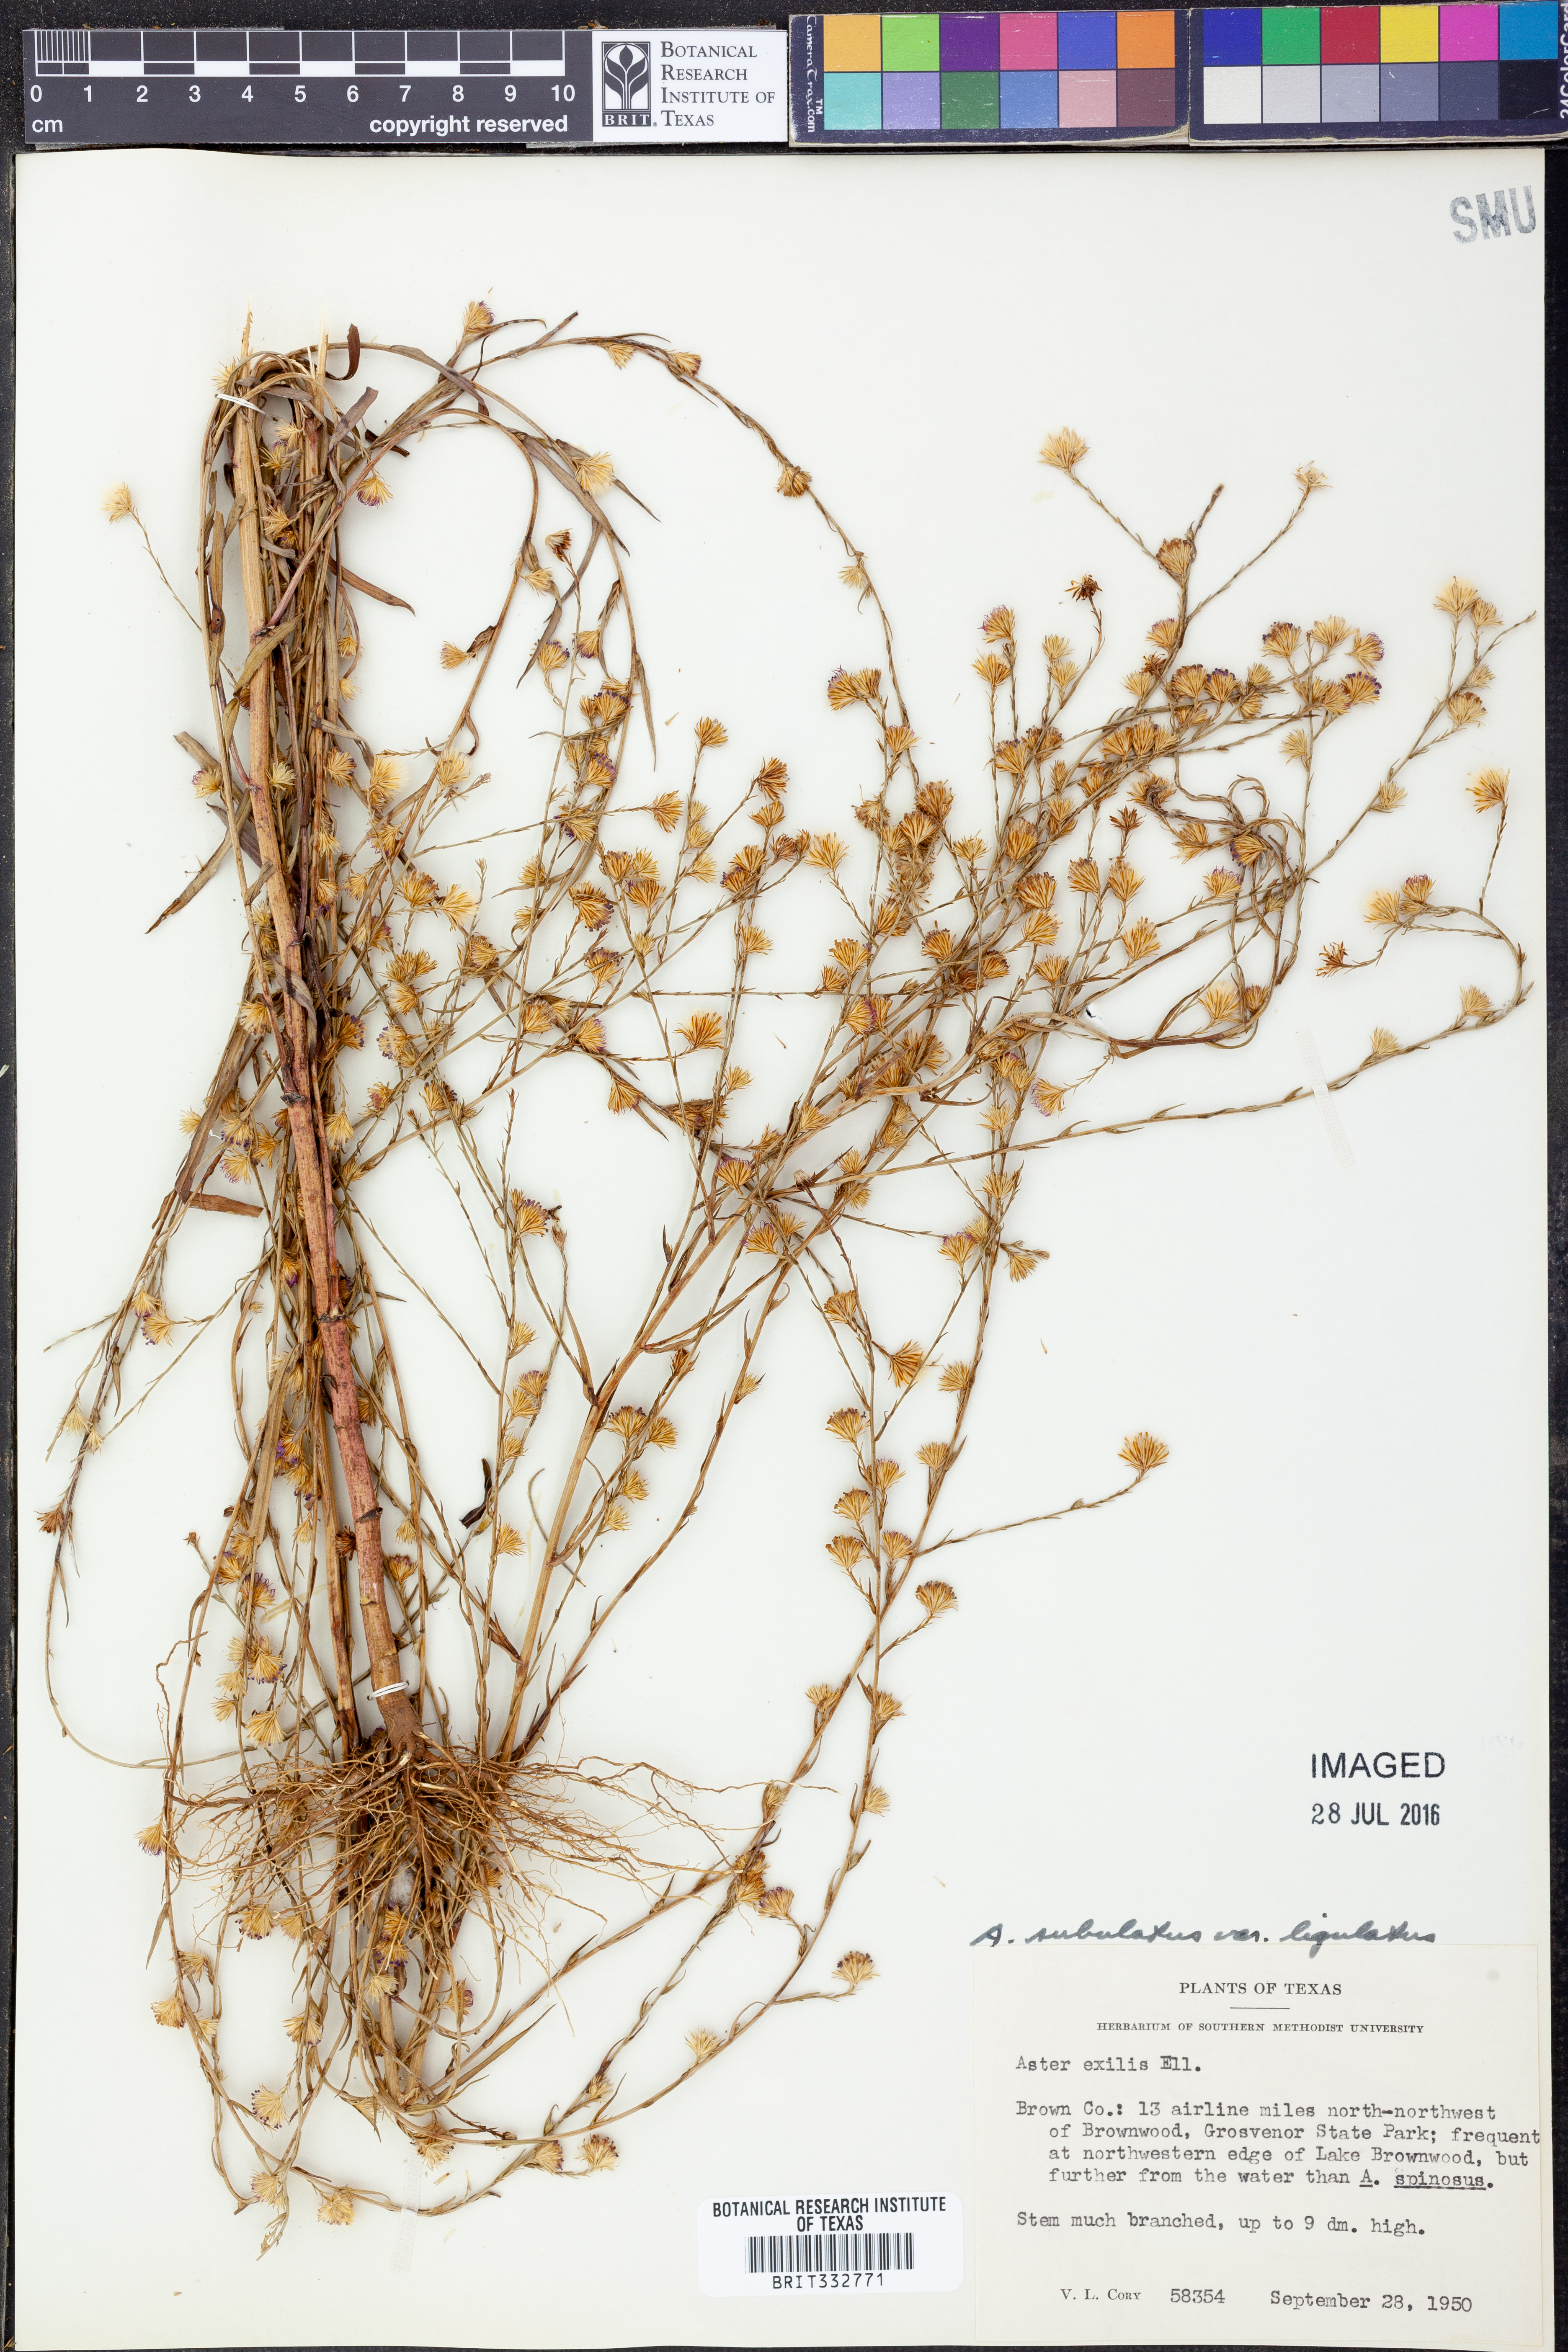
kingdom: Plantae
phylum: Tracheophyta
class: Magnoliopsida
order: Asterales
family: Asteraceae
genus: Symphyotrichum
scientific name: Symphyotrichum divaricatum
